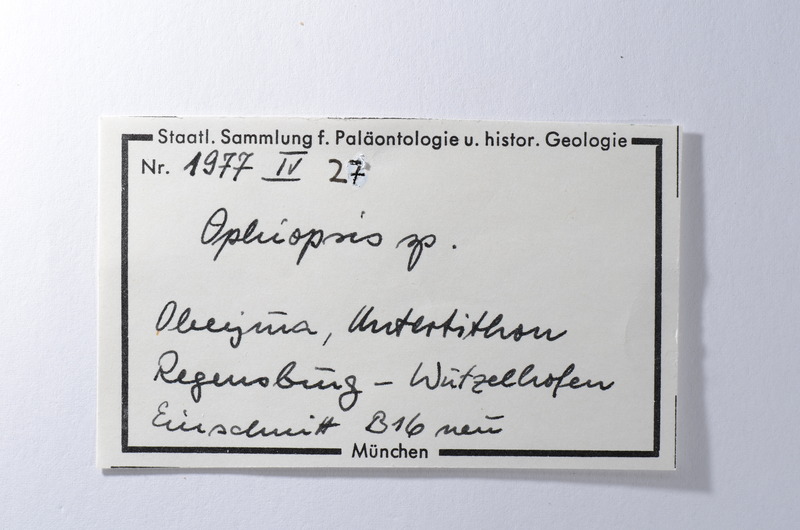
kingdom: Animalia
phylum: Chordata
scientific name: Chordata
